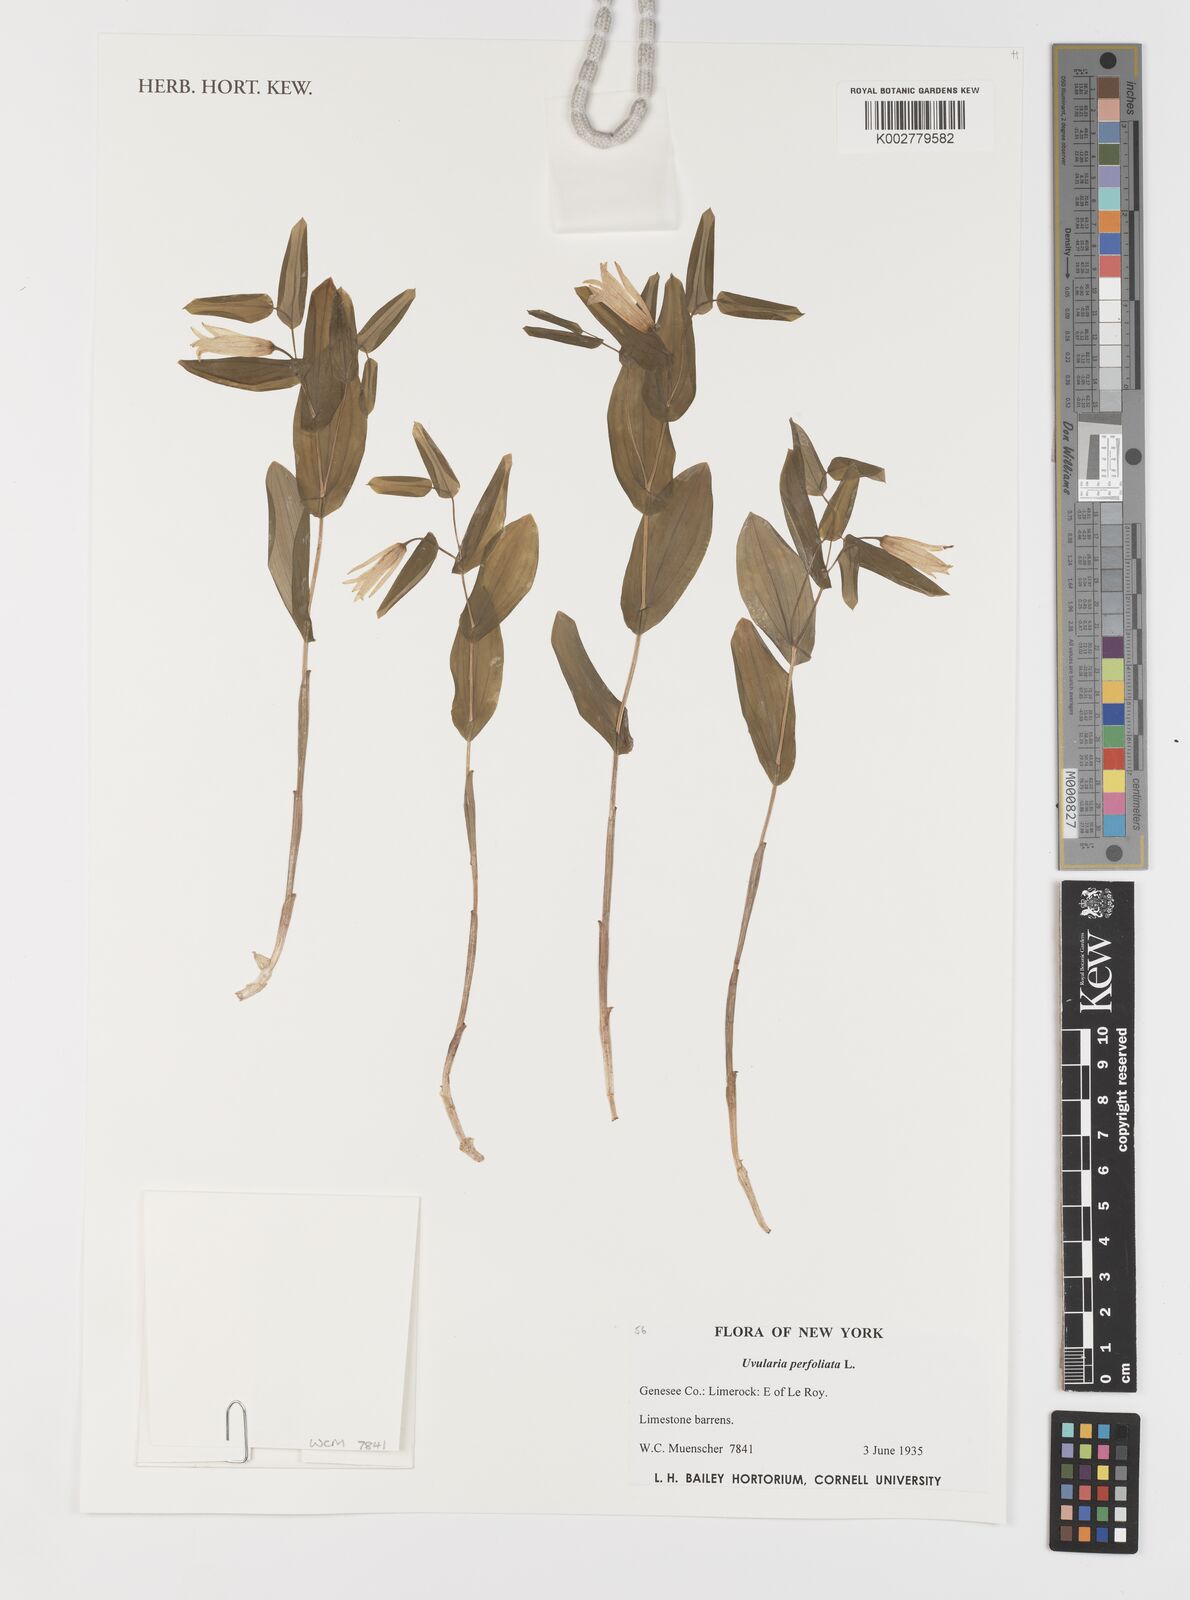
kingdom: Plantae
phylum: Tracheophyta
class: Liliopsida
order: Liliales
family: Colchicaceae
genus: Uvularia
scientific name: Uvularia perfoliata
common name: Perfoliate bellwort
